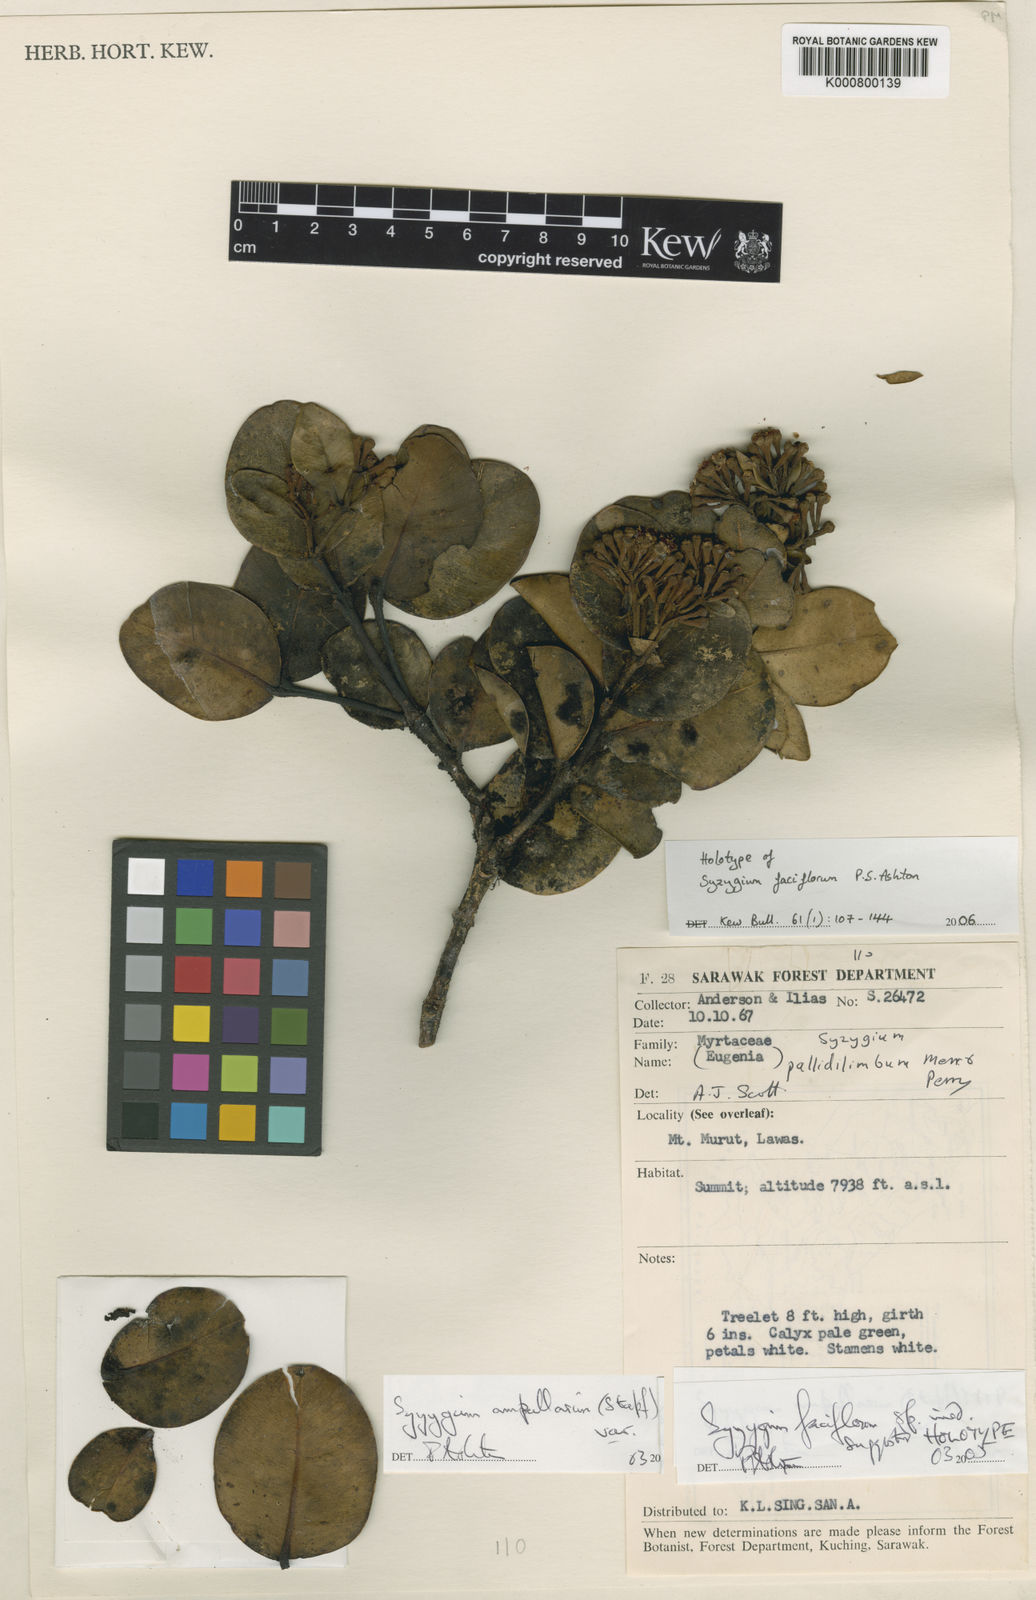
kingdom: Plantae
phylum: Tracheophyta
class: Magnoliopsida
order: Myrtales
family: Myrtaceae
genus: Syzygium
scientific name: Syzygium faciflorum
